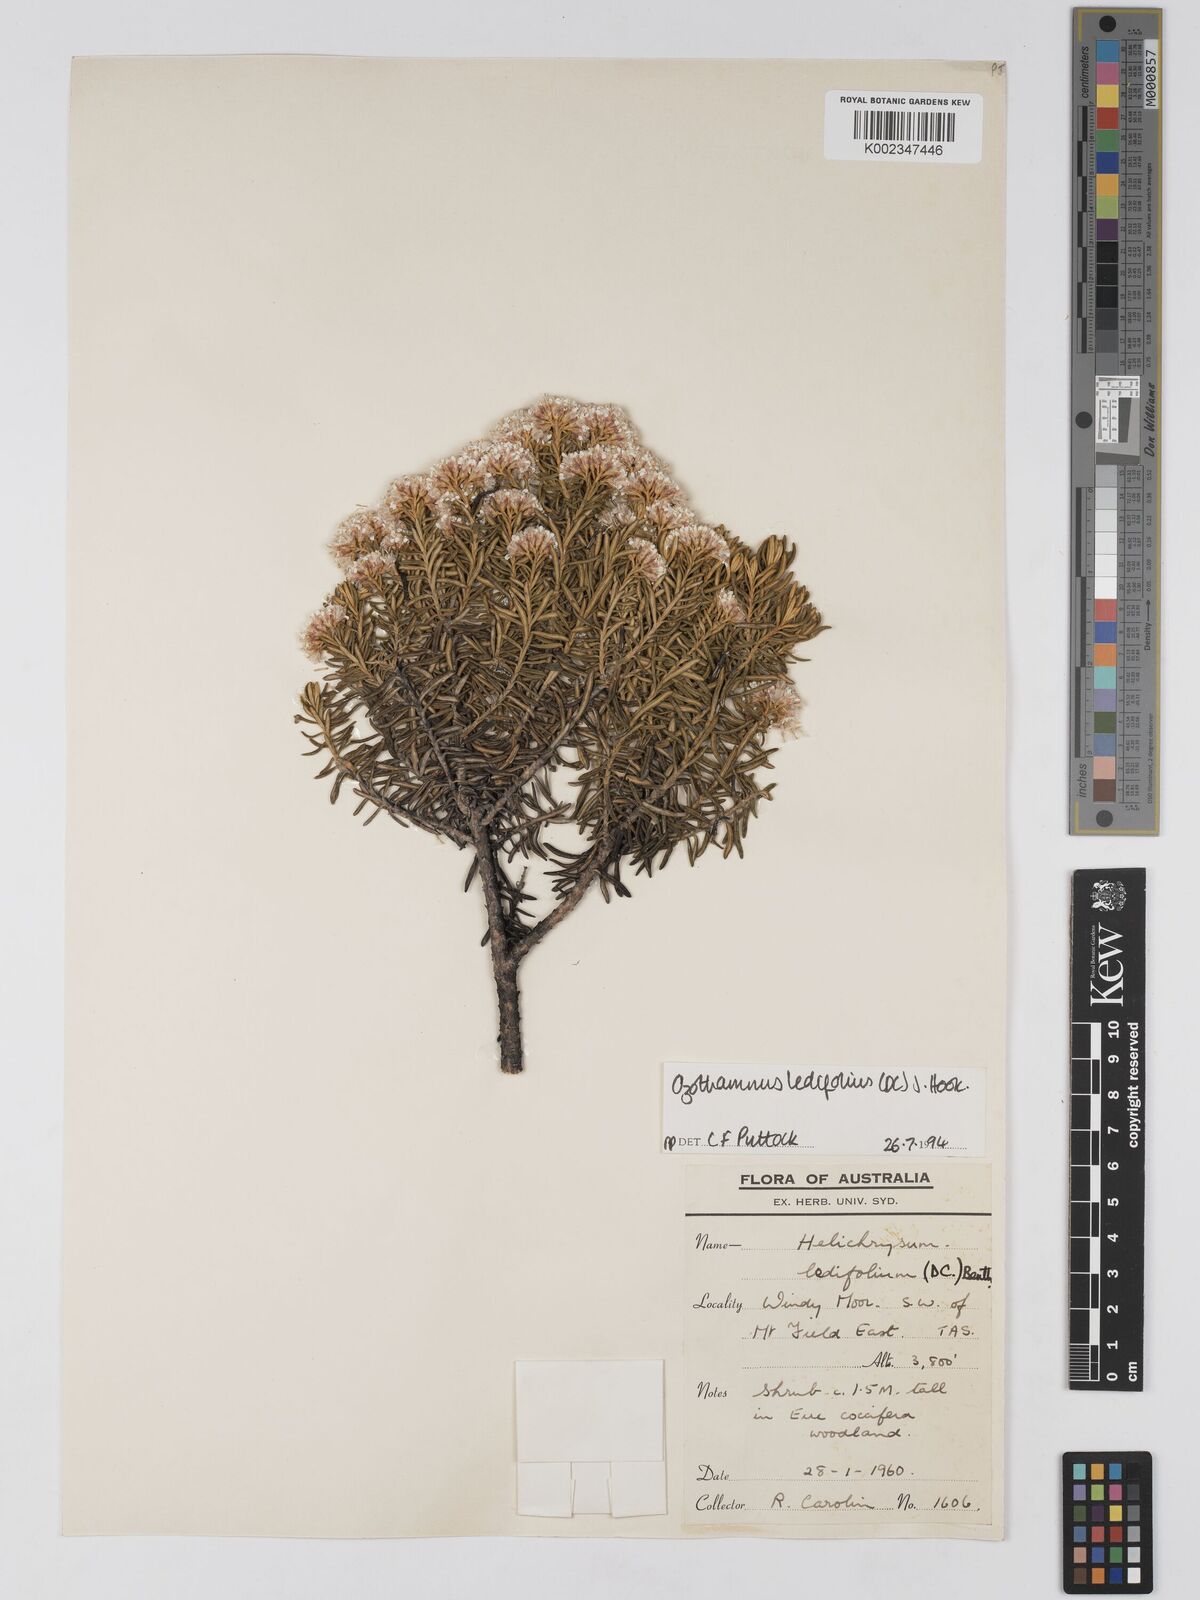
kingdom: Plantae
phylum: Tracheophyta
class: Magnoliopsida
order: Asterales
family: Asteraceae
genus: Ozothamnus
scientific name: Ozothamnus ledifolius
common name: Kerosene-weed
